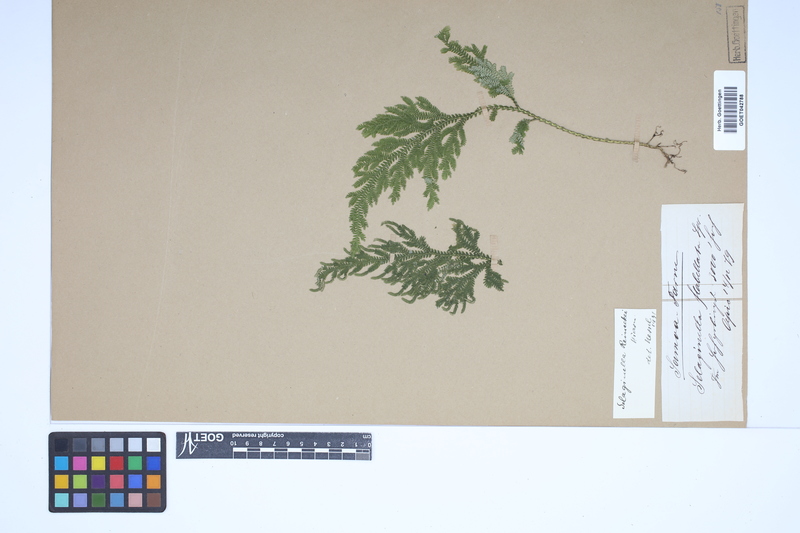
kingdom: Plantae
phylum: Tracheophyta
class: Lycopodiopsida
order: Selaginellales
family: Selaginellaceae
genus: Selaginella
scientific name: Selaginella reineckei
